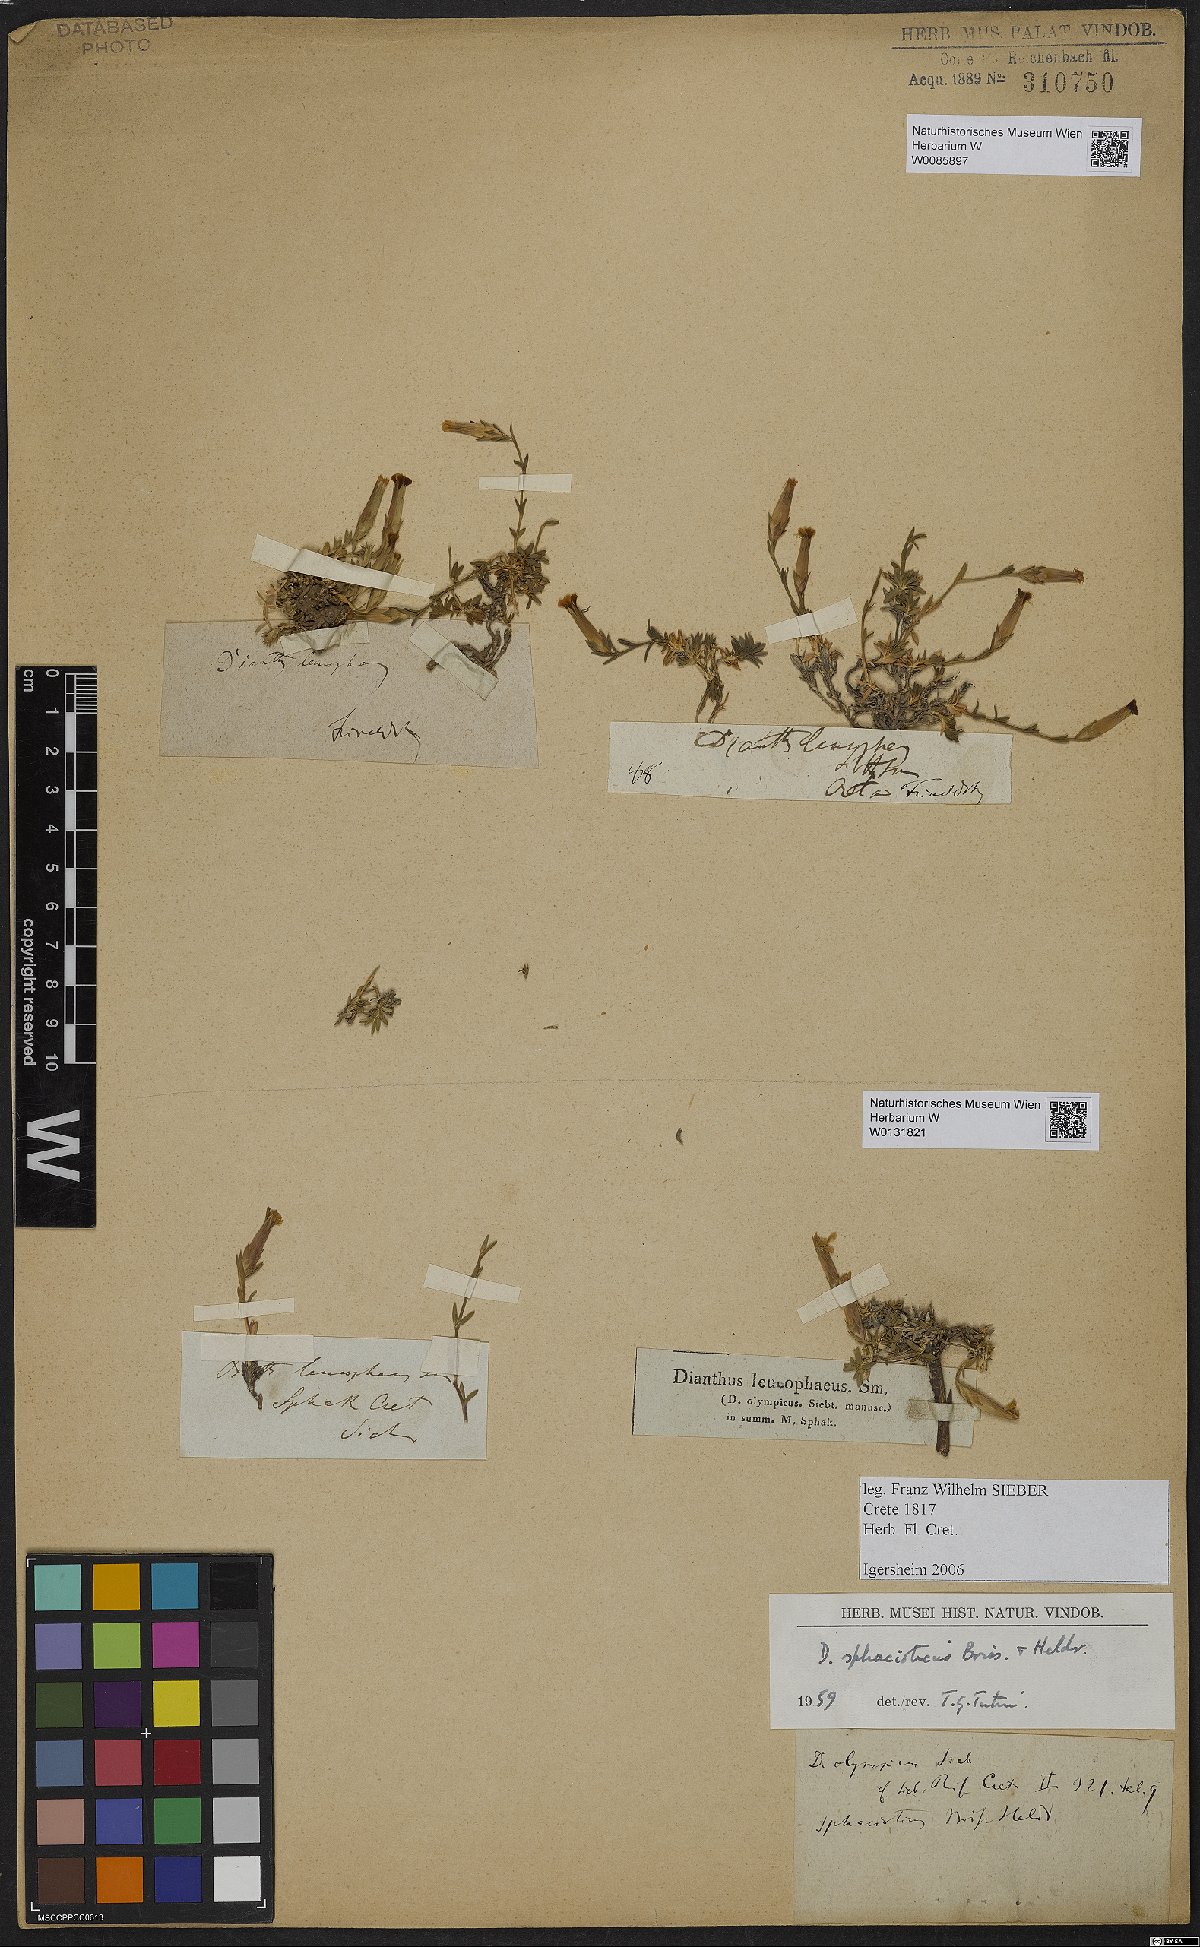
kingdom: Plantae
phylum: Tracheophyta
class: Magnoliopsida
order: Caryophyllales
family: Caryophyllaceae
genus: Dianthus
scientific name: Dianthus sphacioticus
